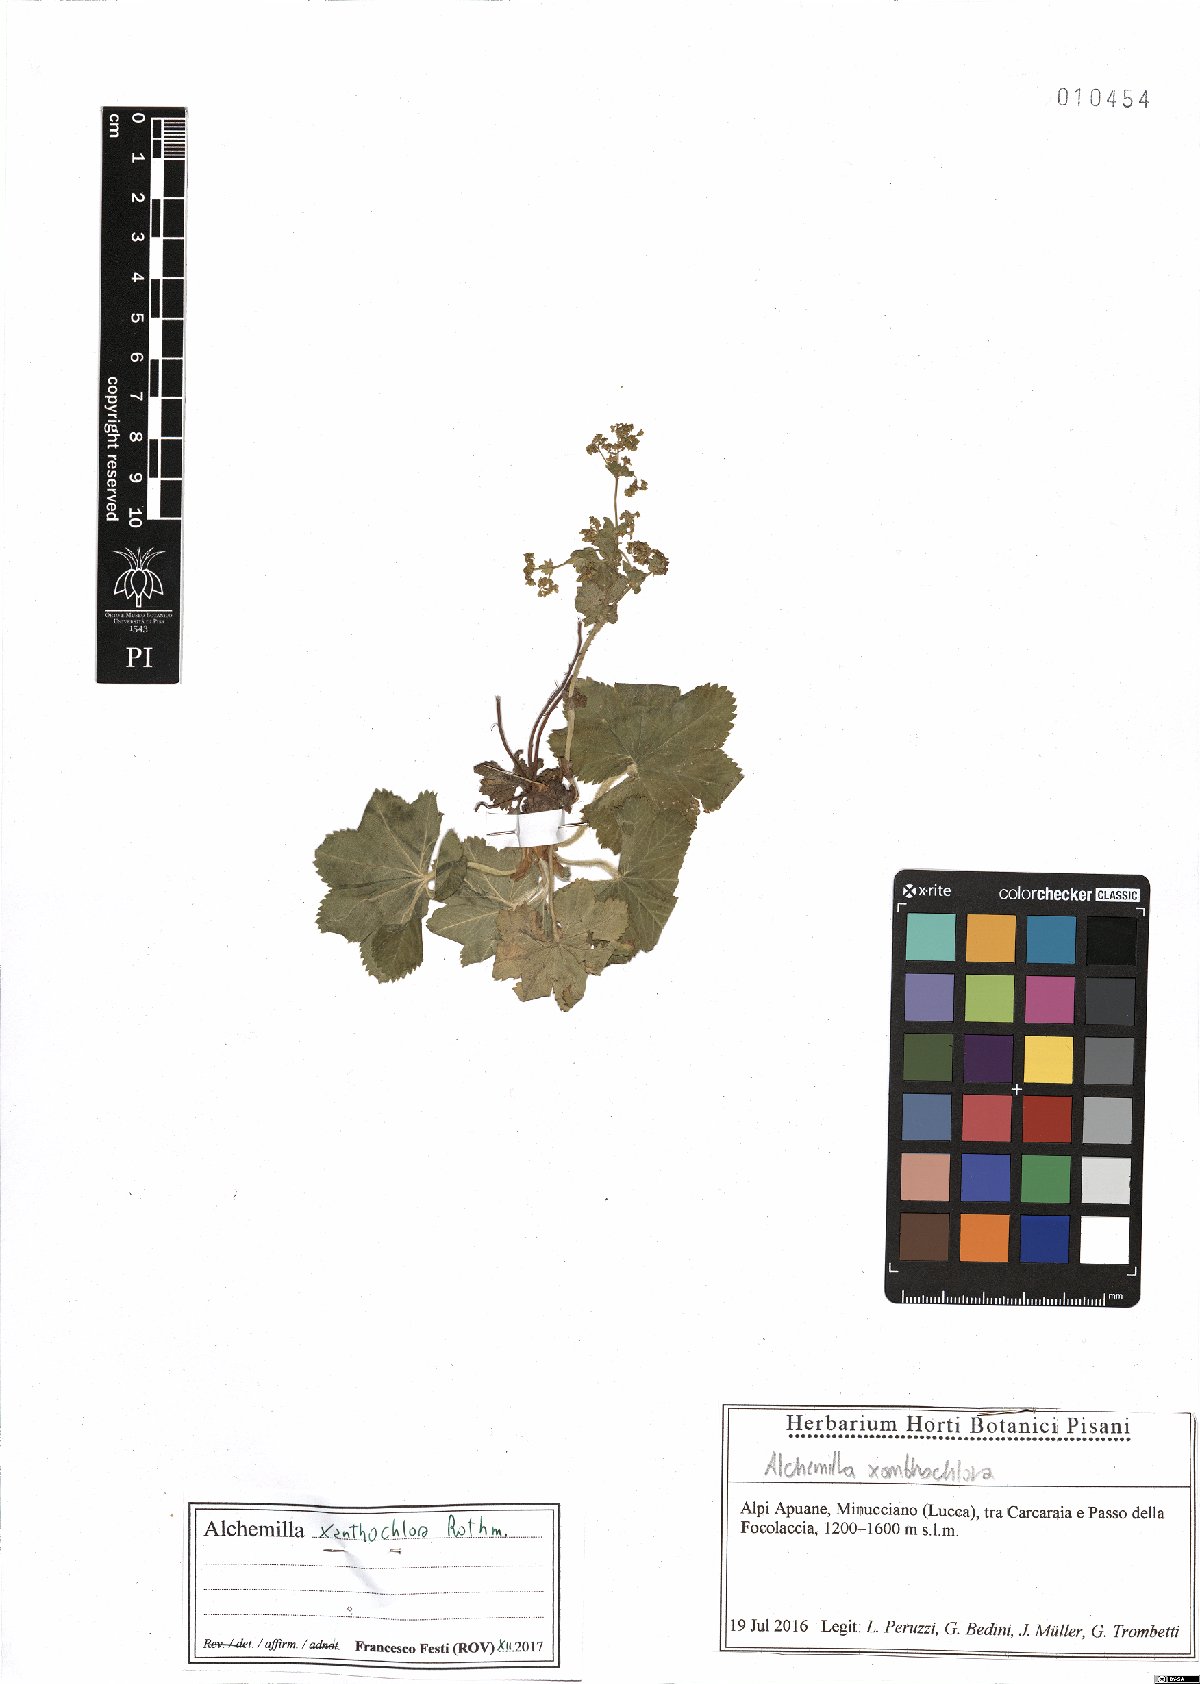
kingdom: Plantae
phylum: Tracheophyta
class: Magnoliopsida
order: Rosales
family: Rosaceae
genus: Alchemilla
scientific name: Alchemilla xanthochlora
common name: Intermediate lady's-mantle
